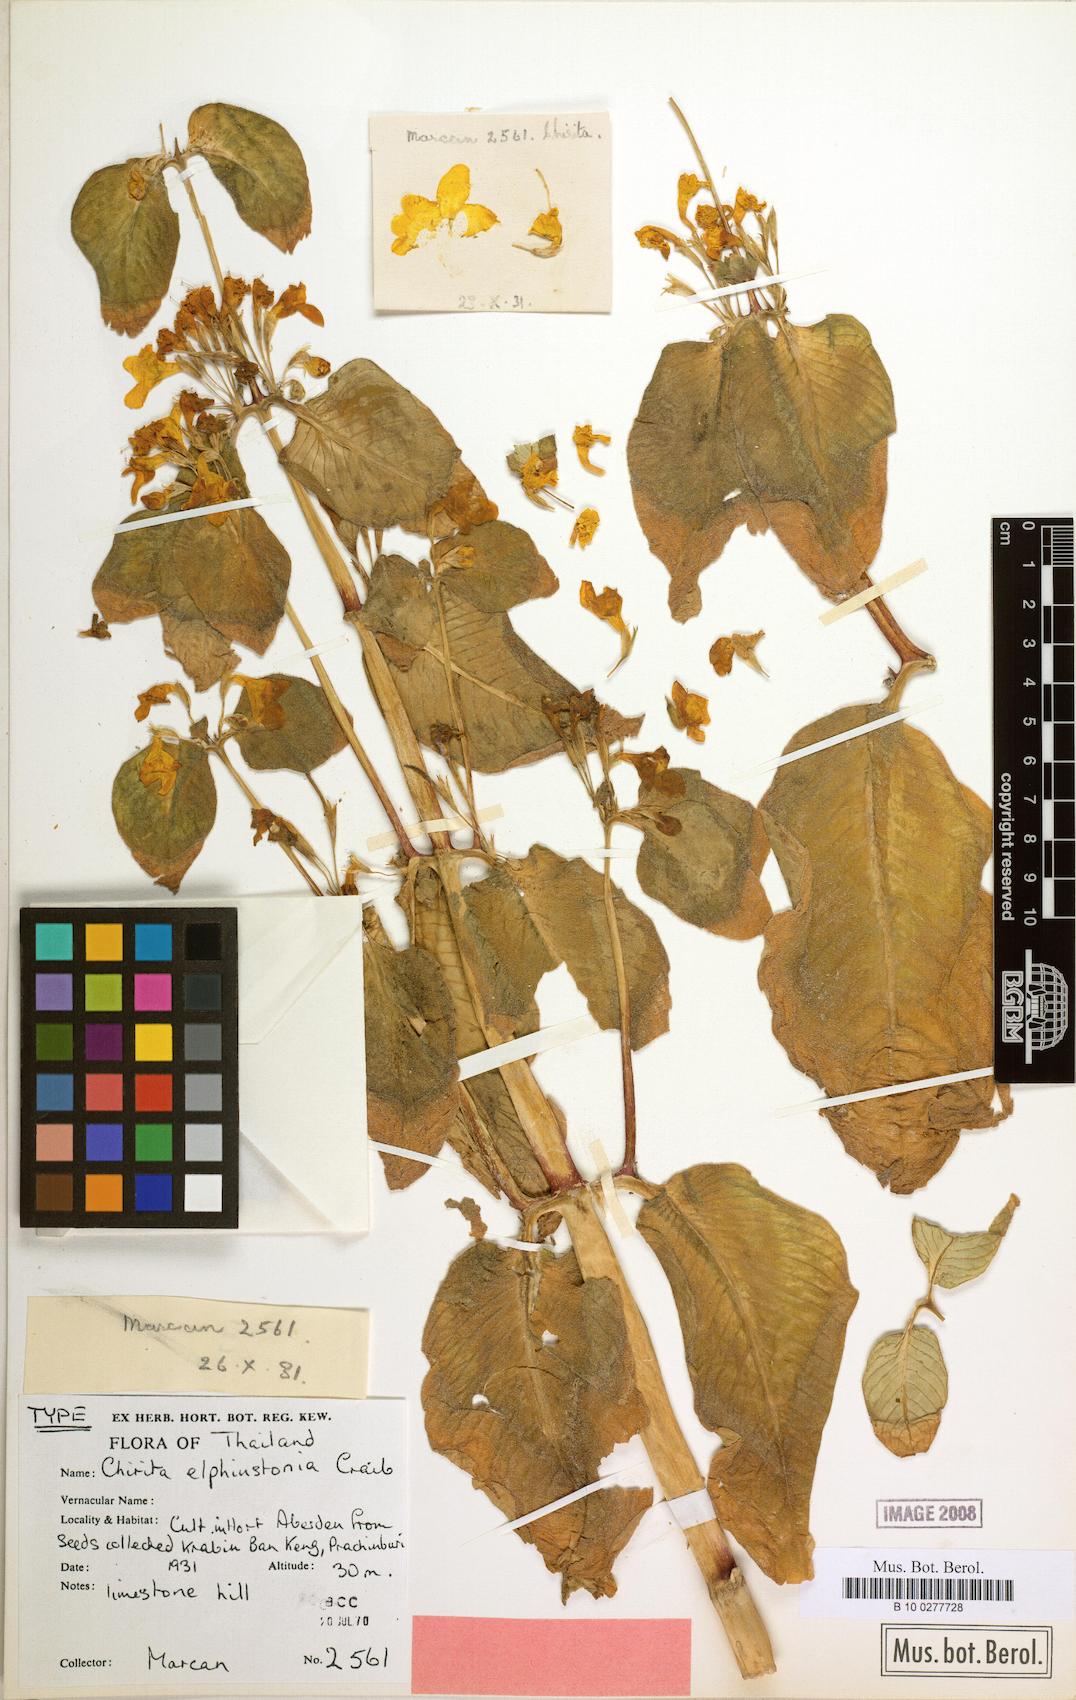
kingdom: Plantae
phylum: Tracheophyta
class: Magnoliopsida
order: Lamiales
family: Gesneriaceae
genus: Microchirita
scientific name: Microchirita elphinstonia
